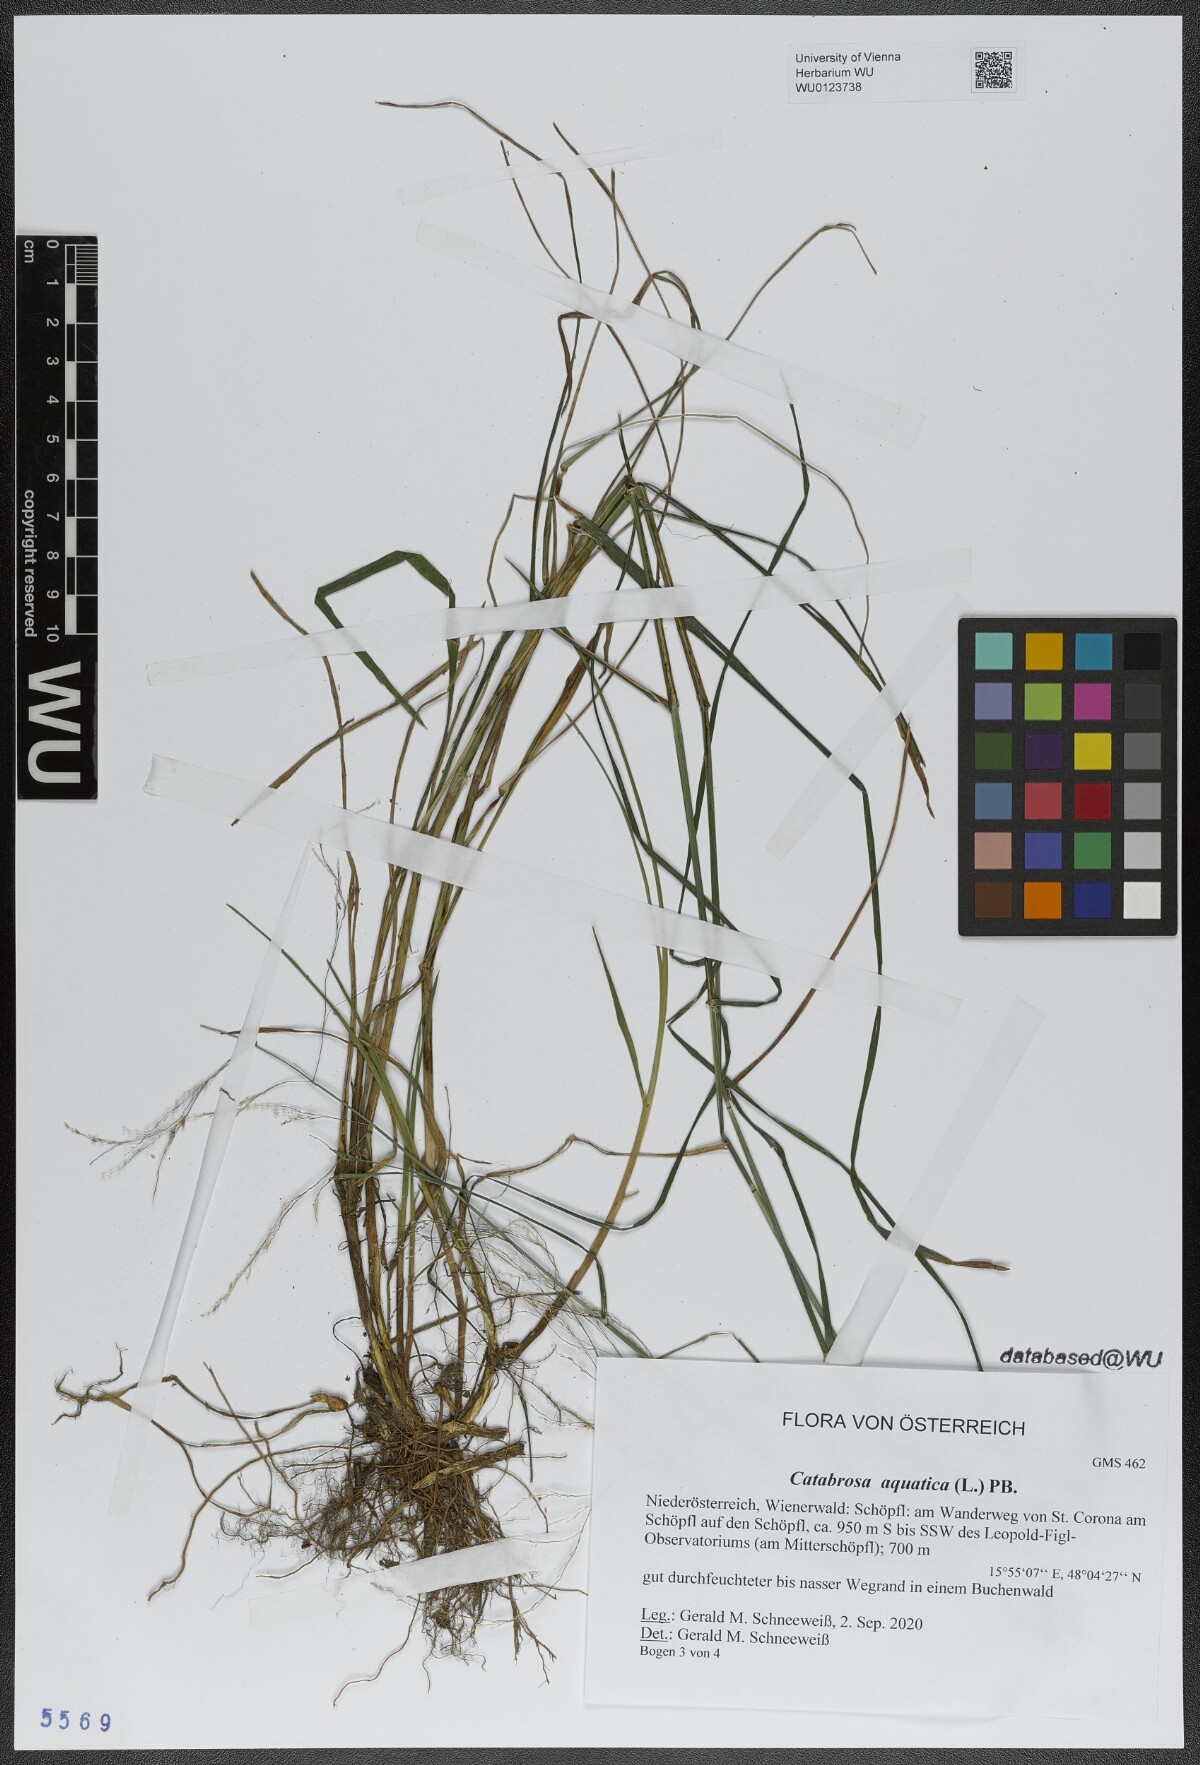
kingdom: Plantae
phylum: Tracheophyta
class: Liliopsida
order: Poales
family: Poaceae
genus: Catabrosa
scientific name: Catabrosa aquatica
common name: Whorl-grass
